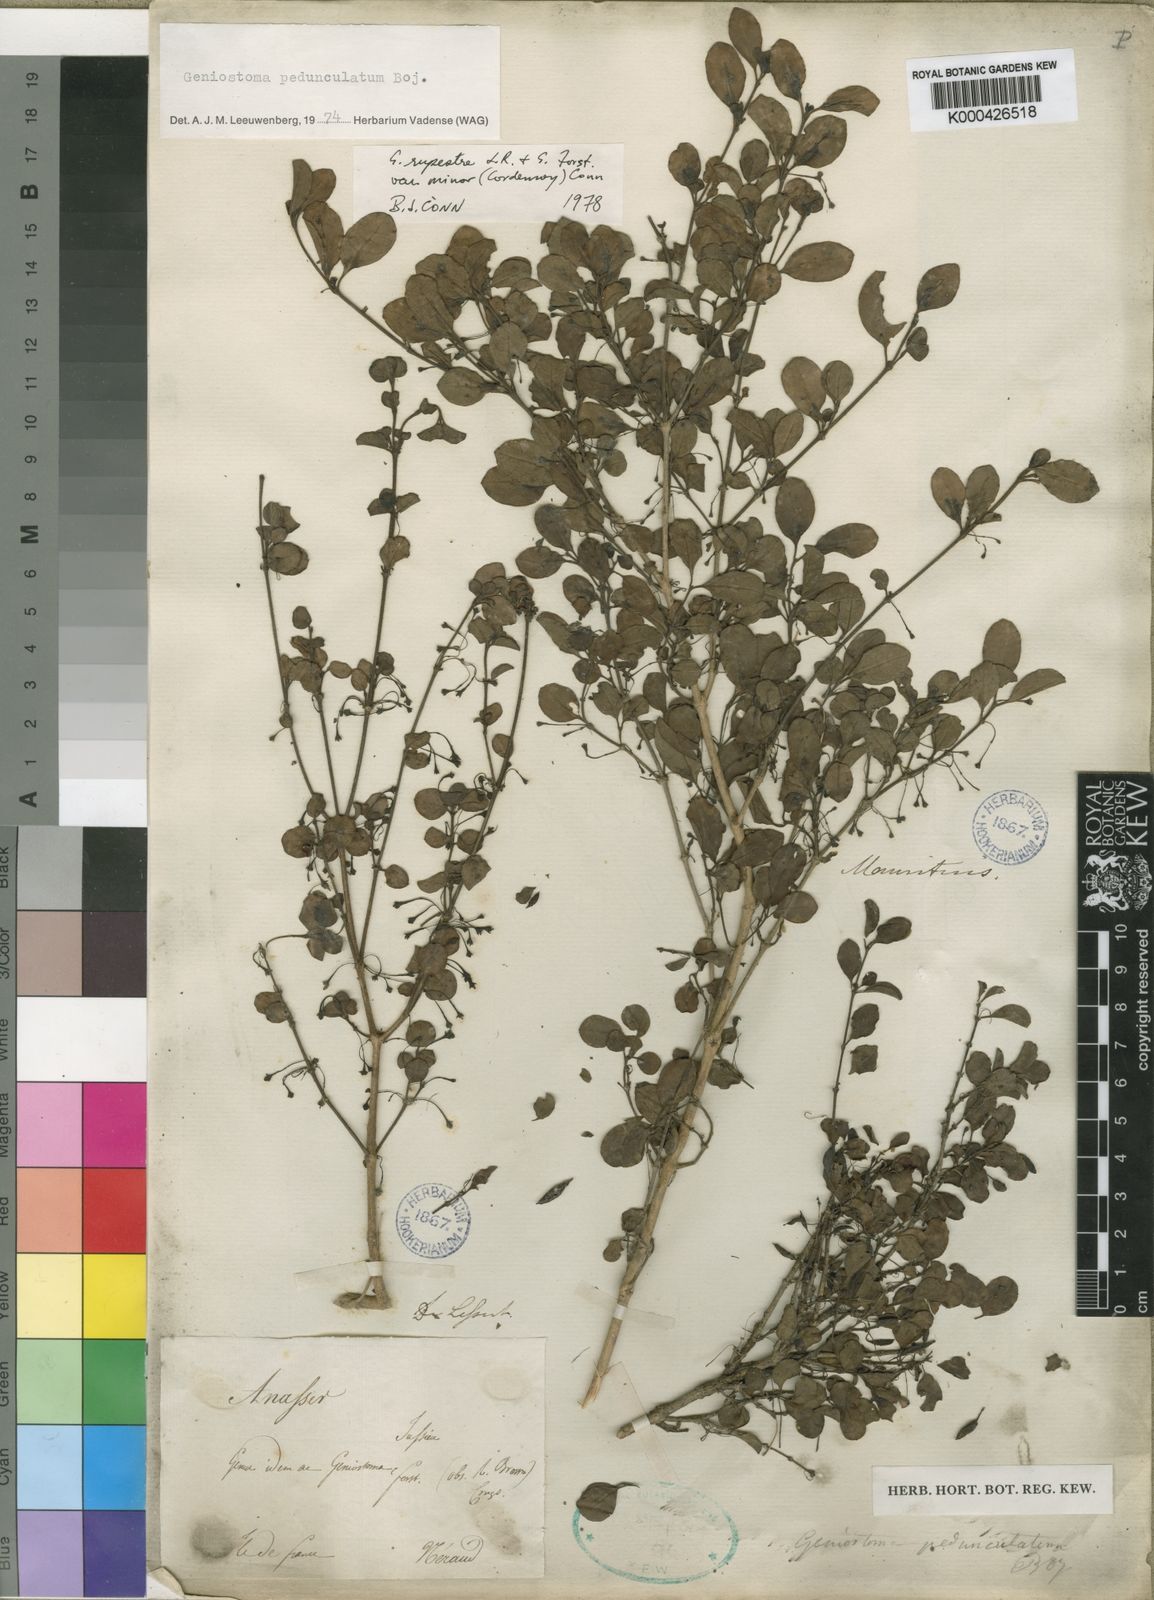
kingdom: Plantae
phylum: Tracheophyta
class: Magnoliopsida
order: Gentianales
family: Loganiaceae
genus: Geniostoma
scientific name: Geniostoma pedunculatum
